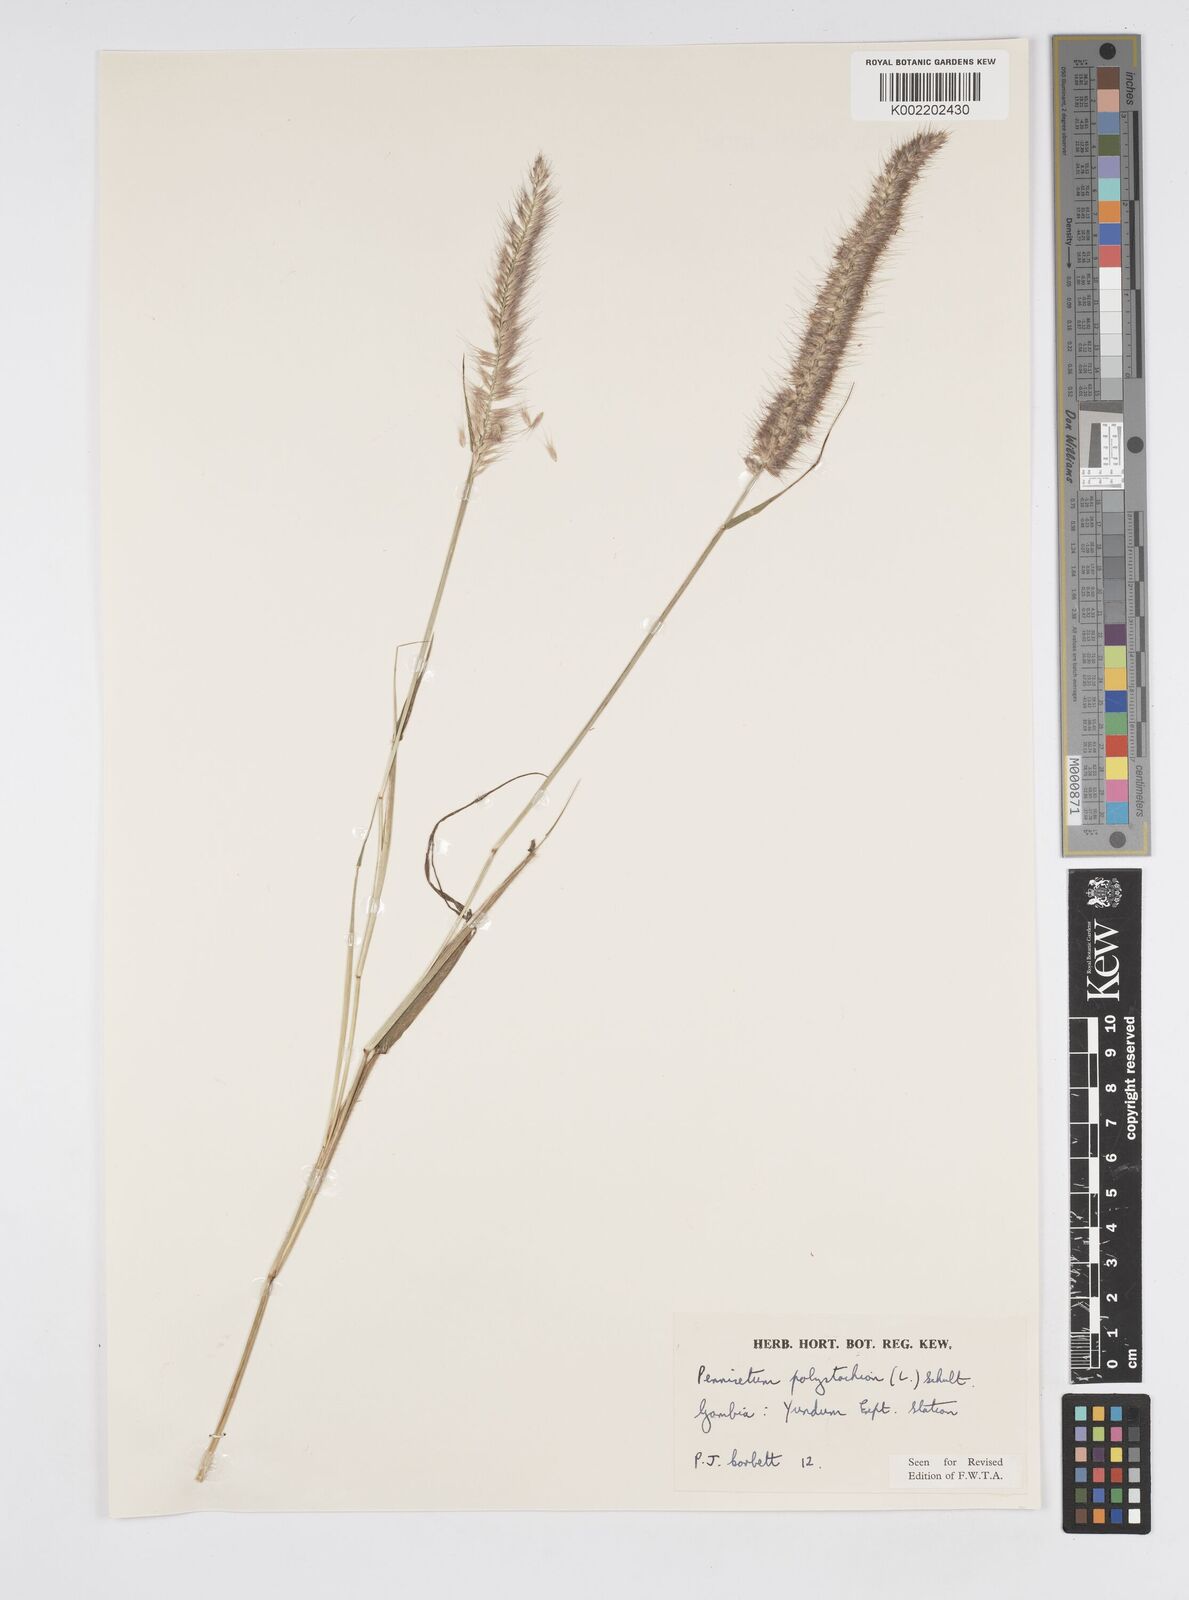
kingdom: Plantae
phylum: Tracheophyta
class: Liliopsida
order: Poales
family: Poaceae
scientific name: Poaceae
